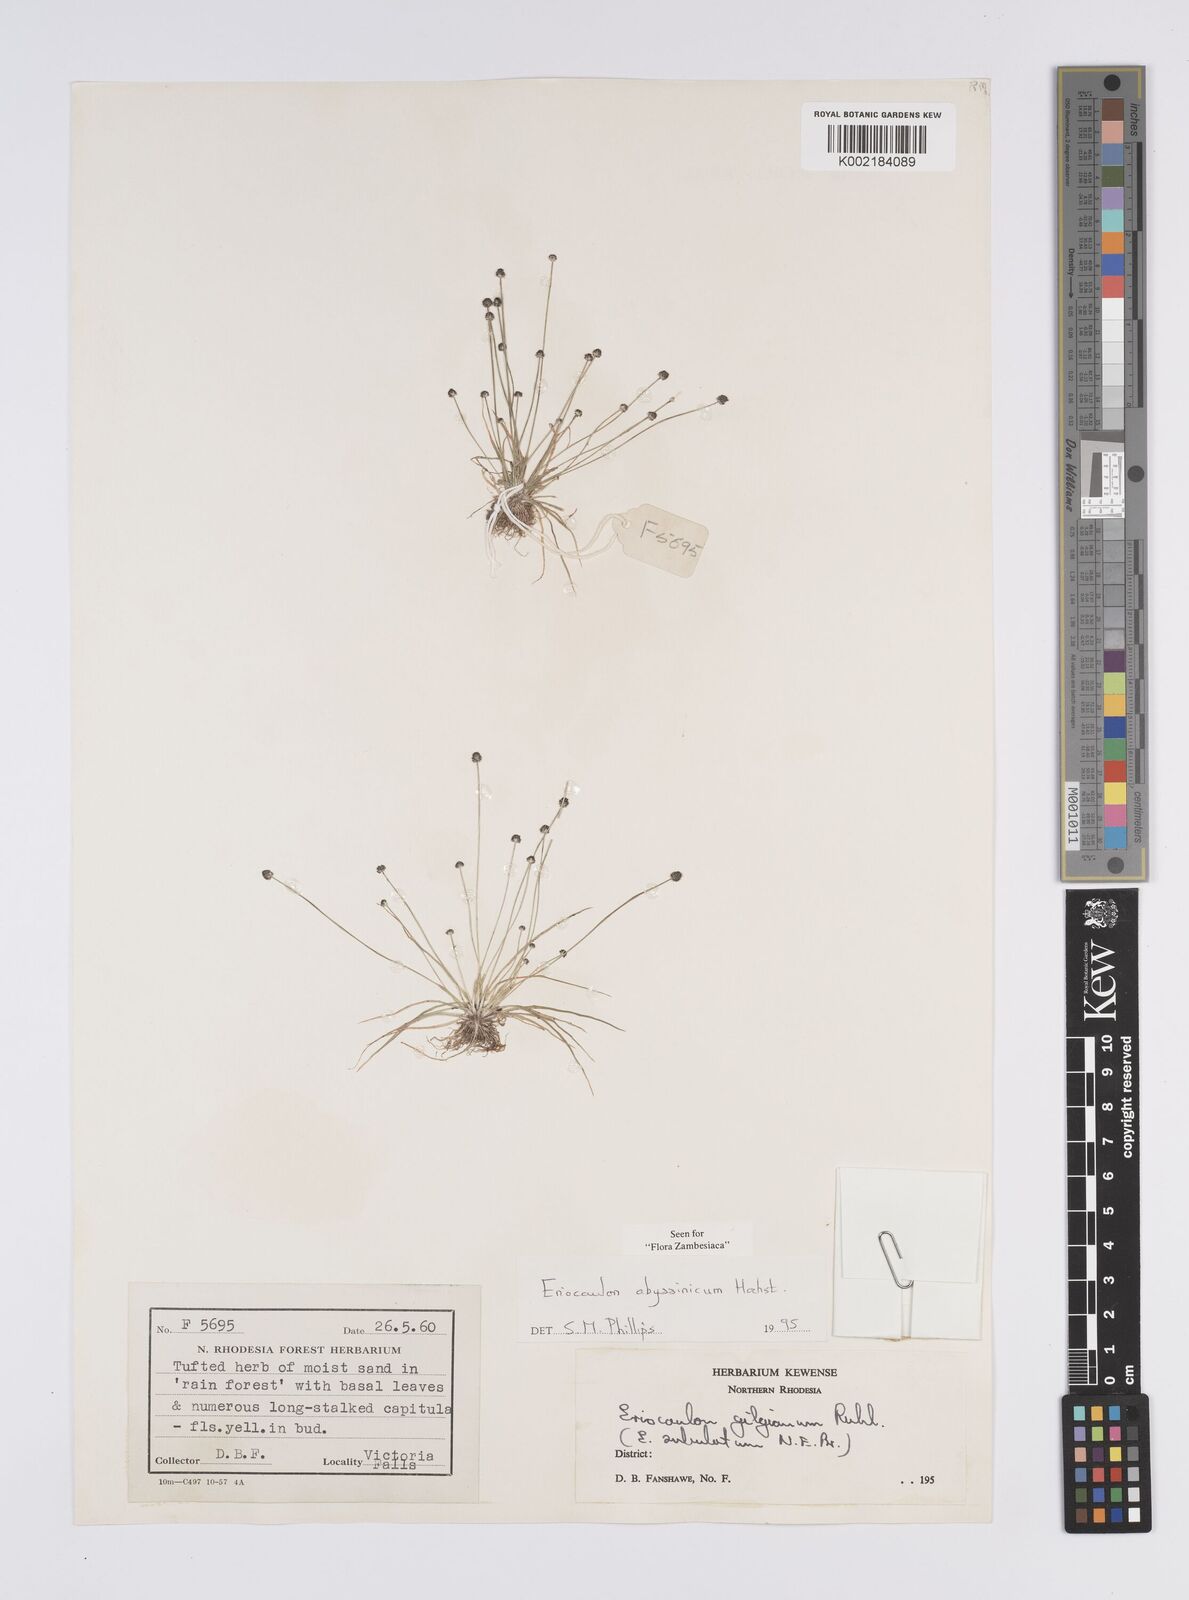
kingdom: Plantae
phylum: Tracheophyta
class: Liliopsida
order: Poales
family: Eriocaulaceae
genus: Eriocaulon
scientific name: Eriocaulon abyssinicum
